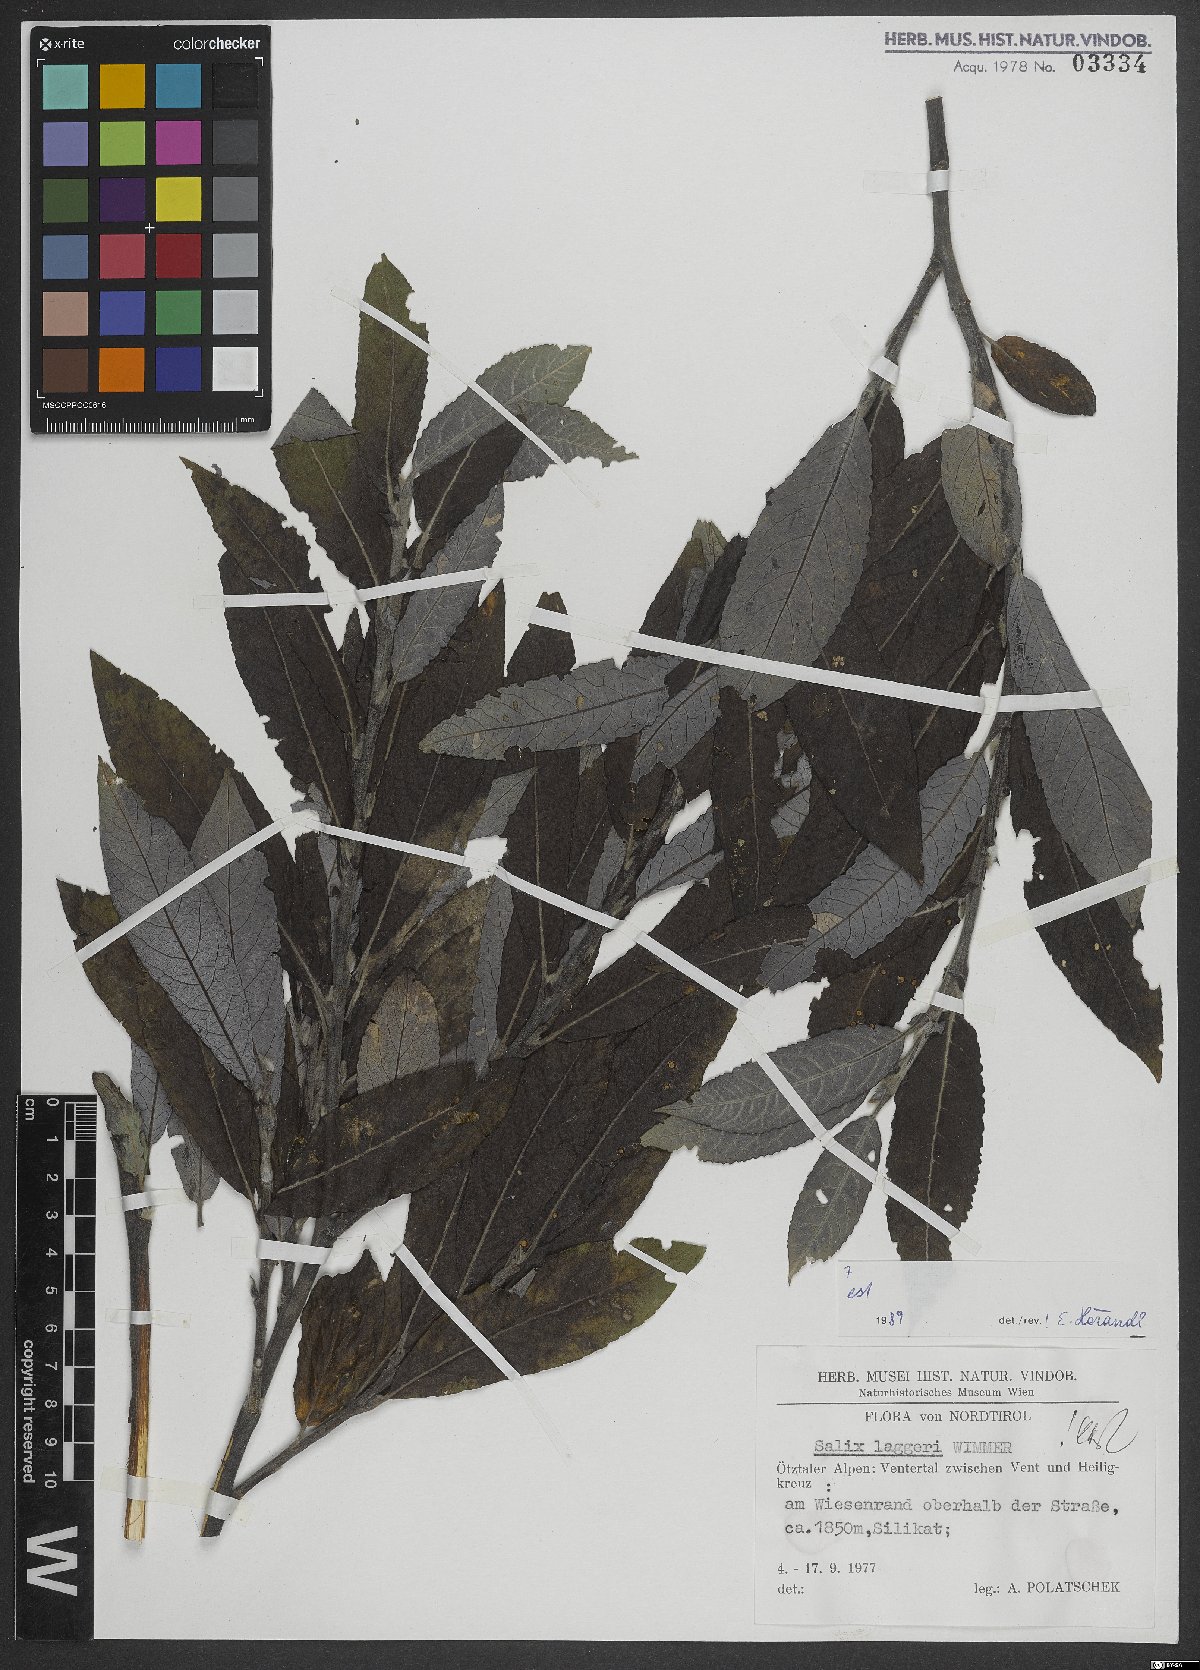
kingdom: Plantae
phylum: Tracheophyta
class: Magnoliopsida
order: Malpighiales
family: Salicaceae
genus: Salix
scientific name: Salix laggeri
